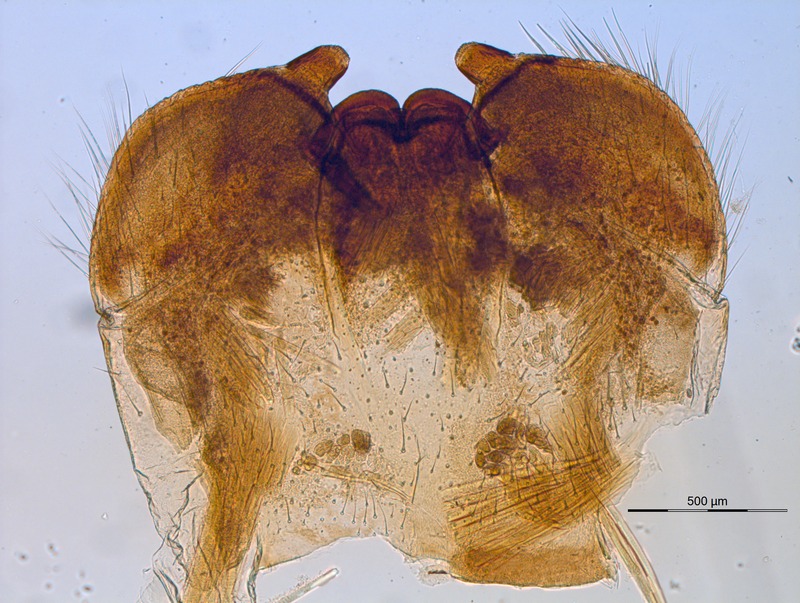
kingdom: Animalia
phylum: Arthropoda
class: Diplopoda
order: Sphaerotheriida
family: Zephroniidae
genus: Prionobelum
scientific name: Prionobelum durum
